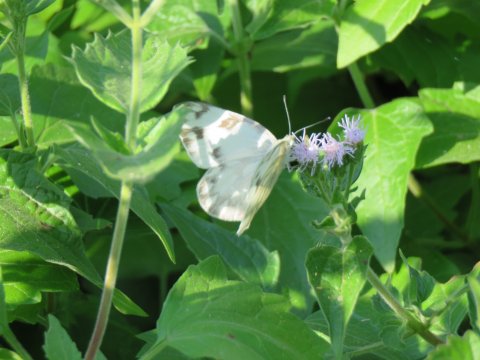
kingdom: Animalia
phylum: Arthropoda
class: Insecta
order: Lepidoptera
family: Pieridae
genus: Pontia
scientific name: Pontia protodice
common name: Checkered White
